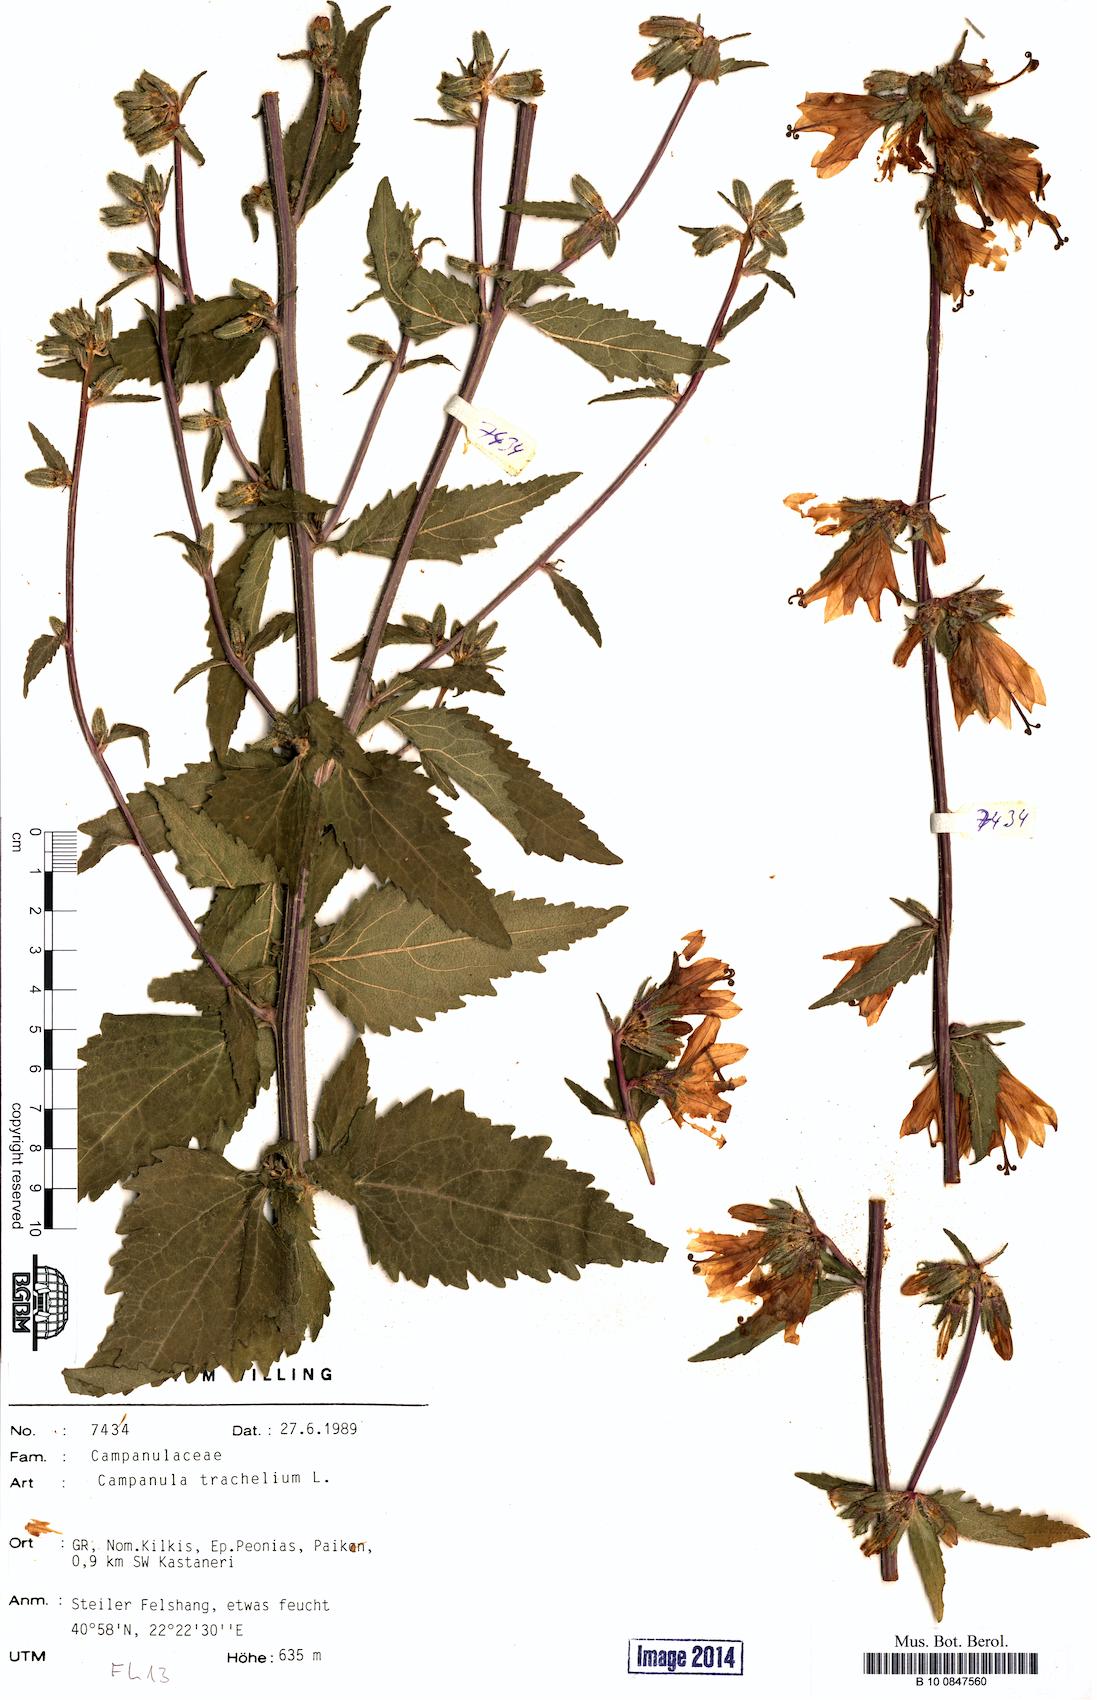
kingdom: Plantae
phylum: Tracheophyta
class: Magnoliopsida
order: Asterales
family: Campanulaceae
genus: Campanula
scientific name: Campanula trachelium
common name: Nettle-leaved bellflower
